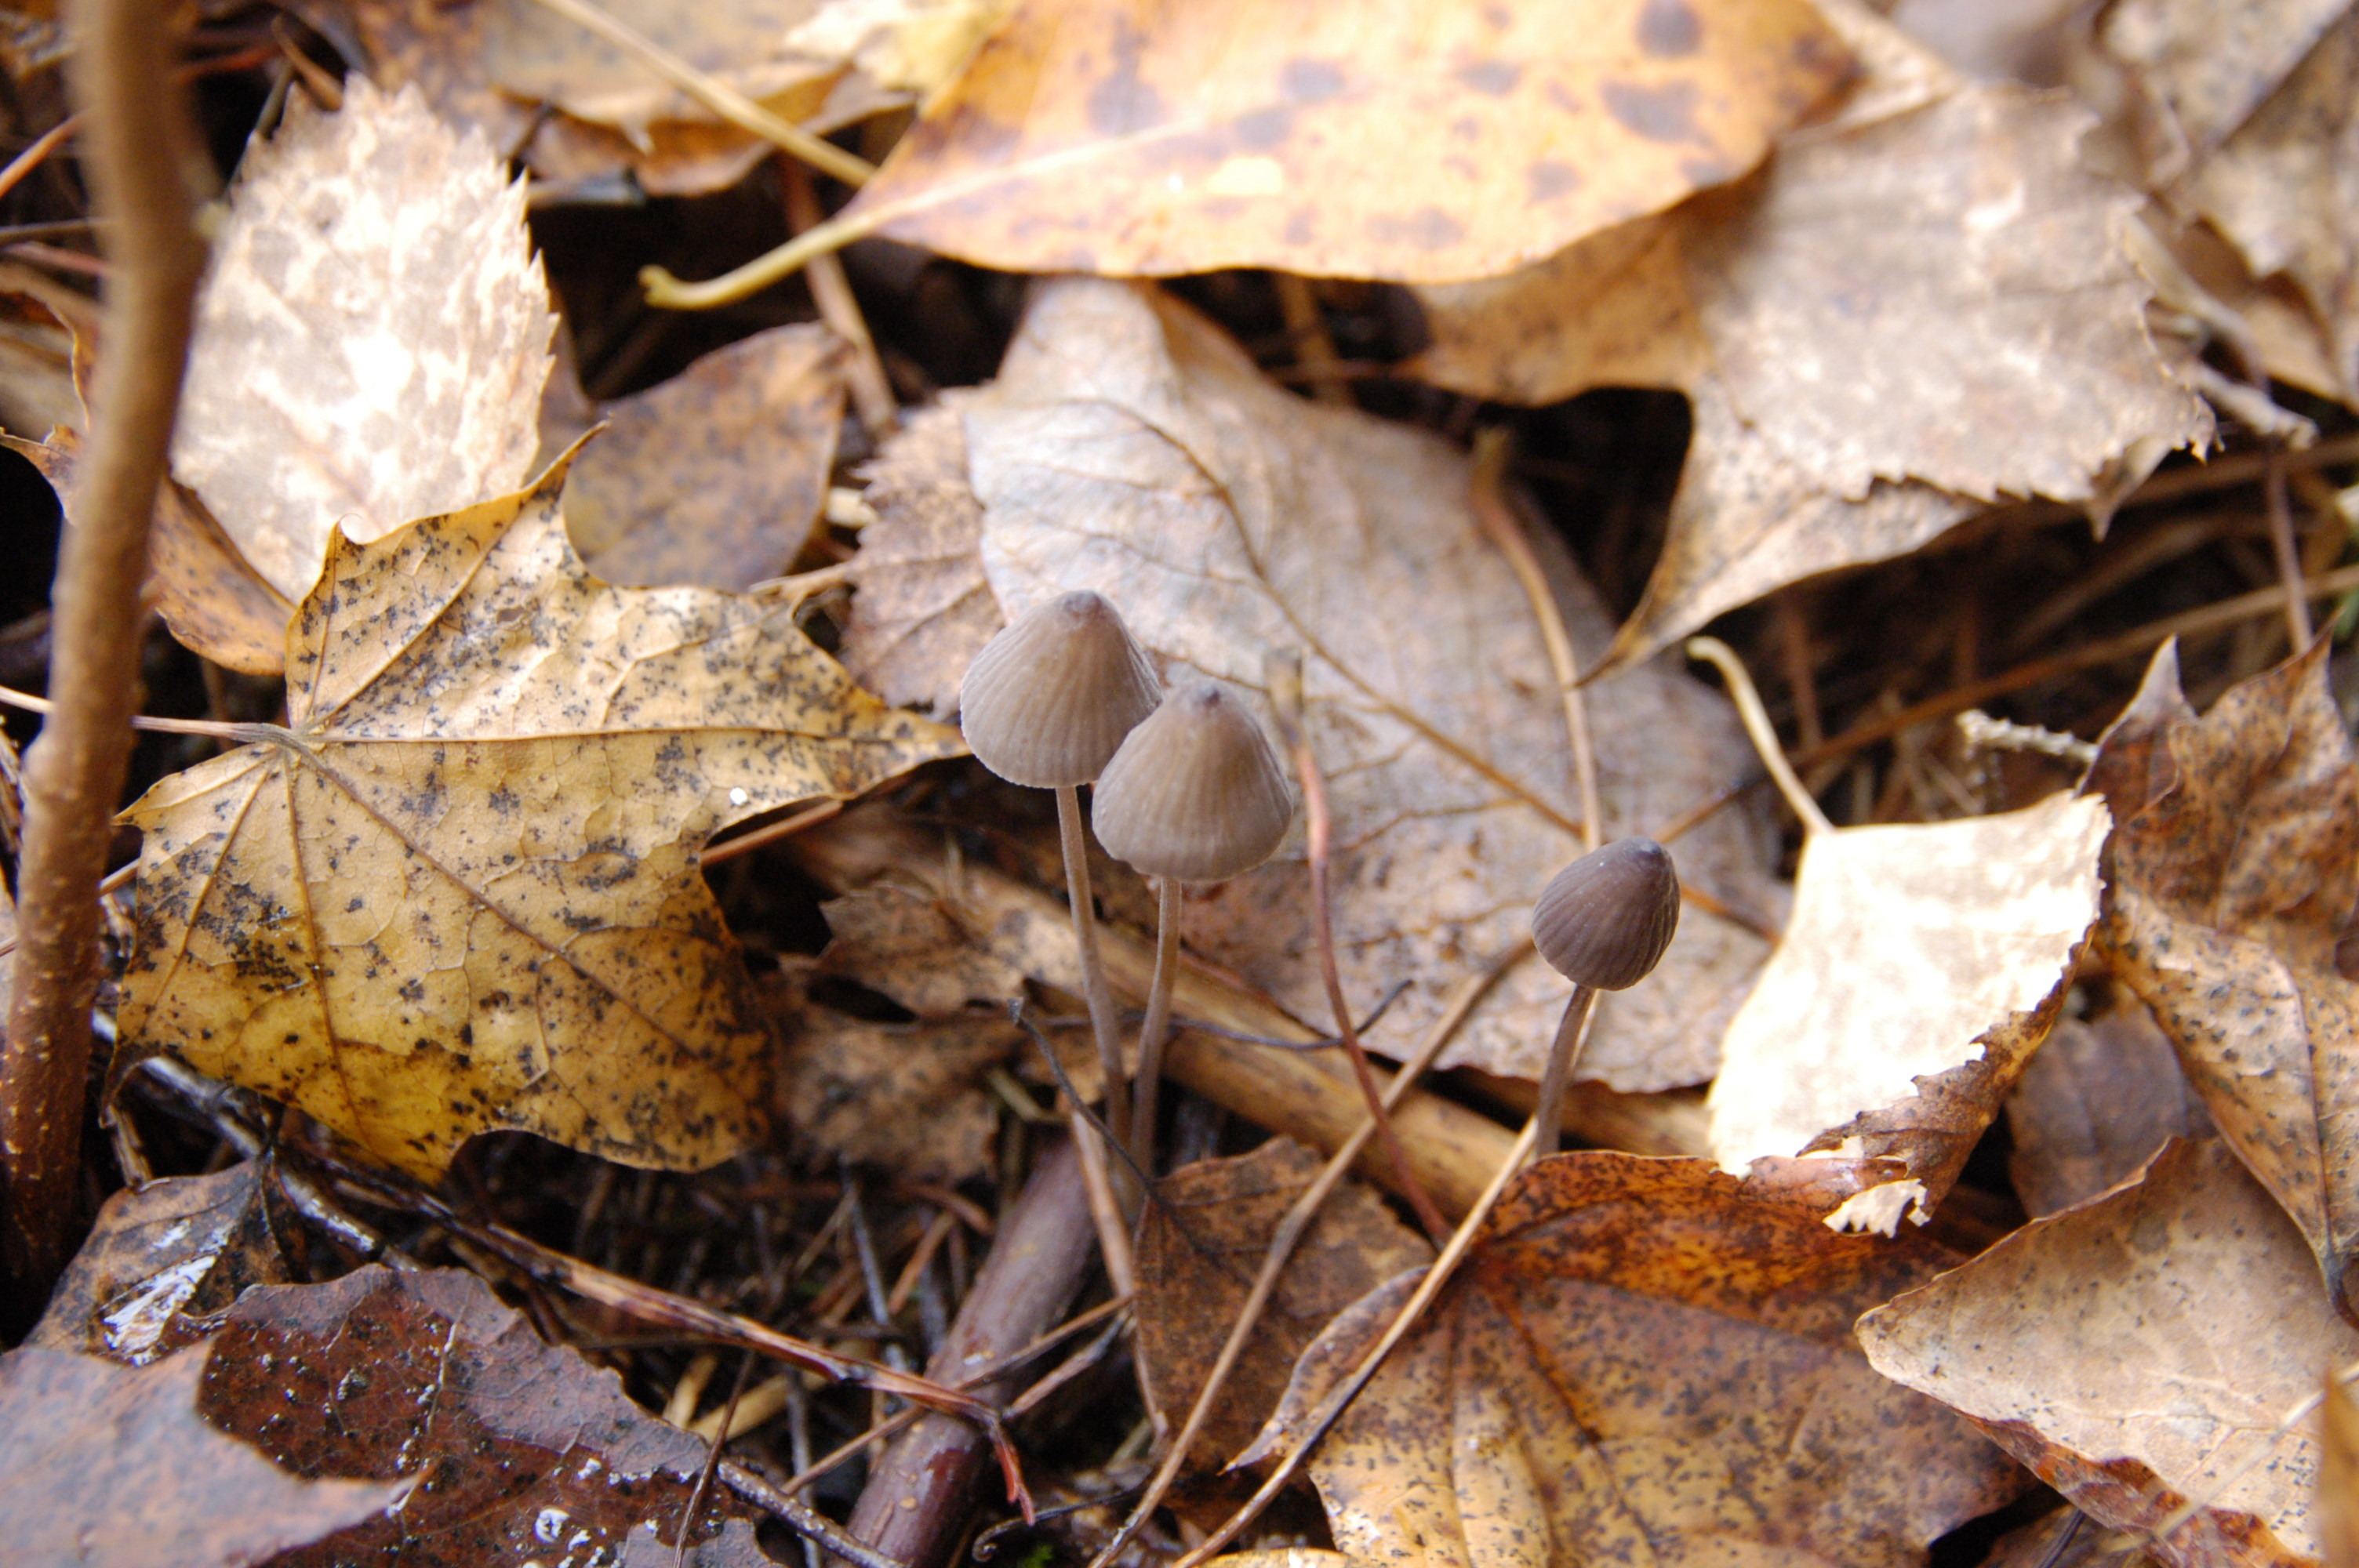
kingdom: Fungi
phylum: Basidiomycota
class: Agaricomycetes
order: Agaricales
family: Mycenaceae
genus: Mycena
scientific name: Mycena galopus
